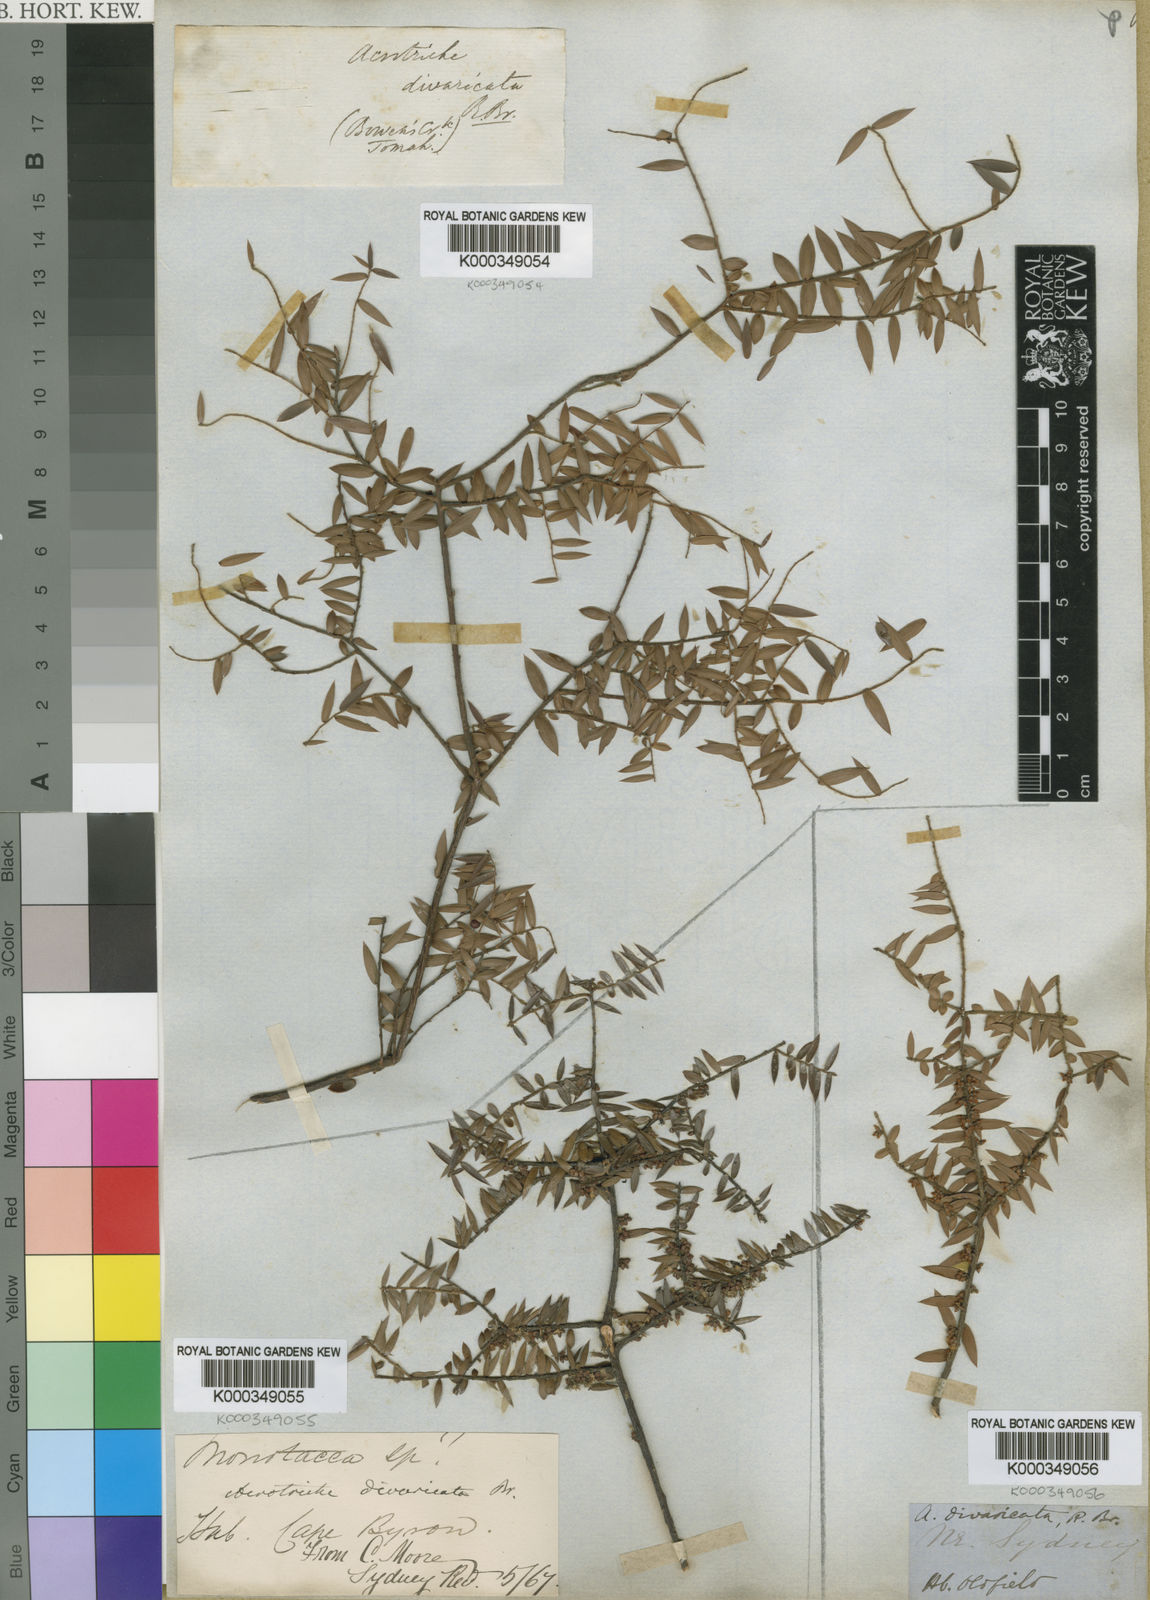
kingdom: Plantae
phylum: Tracheophyta
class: Magnoliopsida
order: Ericales
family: Ericaceae
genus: Acrotriche
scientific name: Acrotriche divaricata
